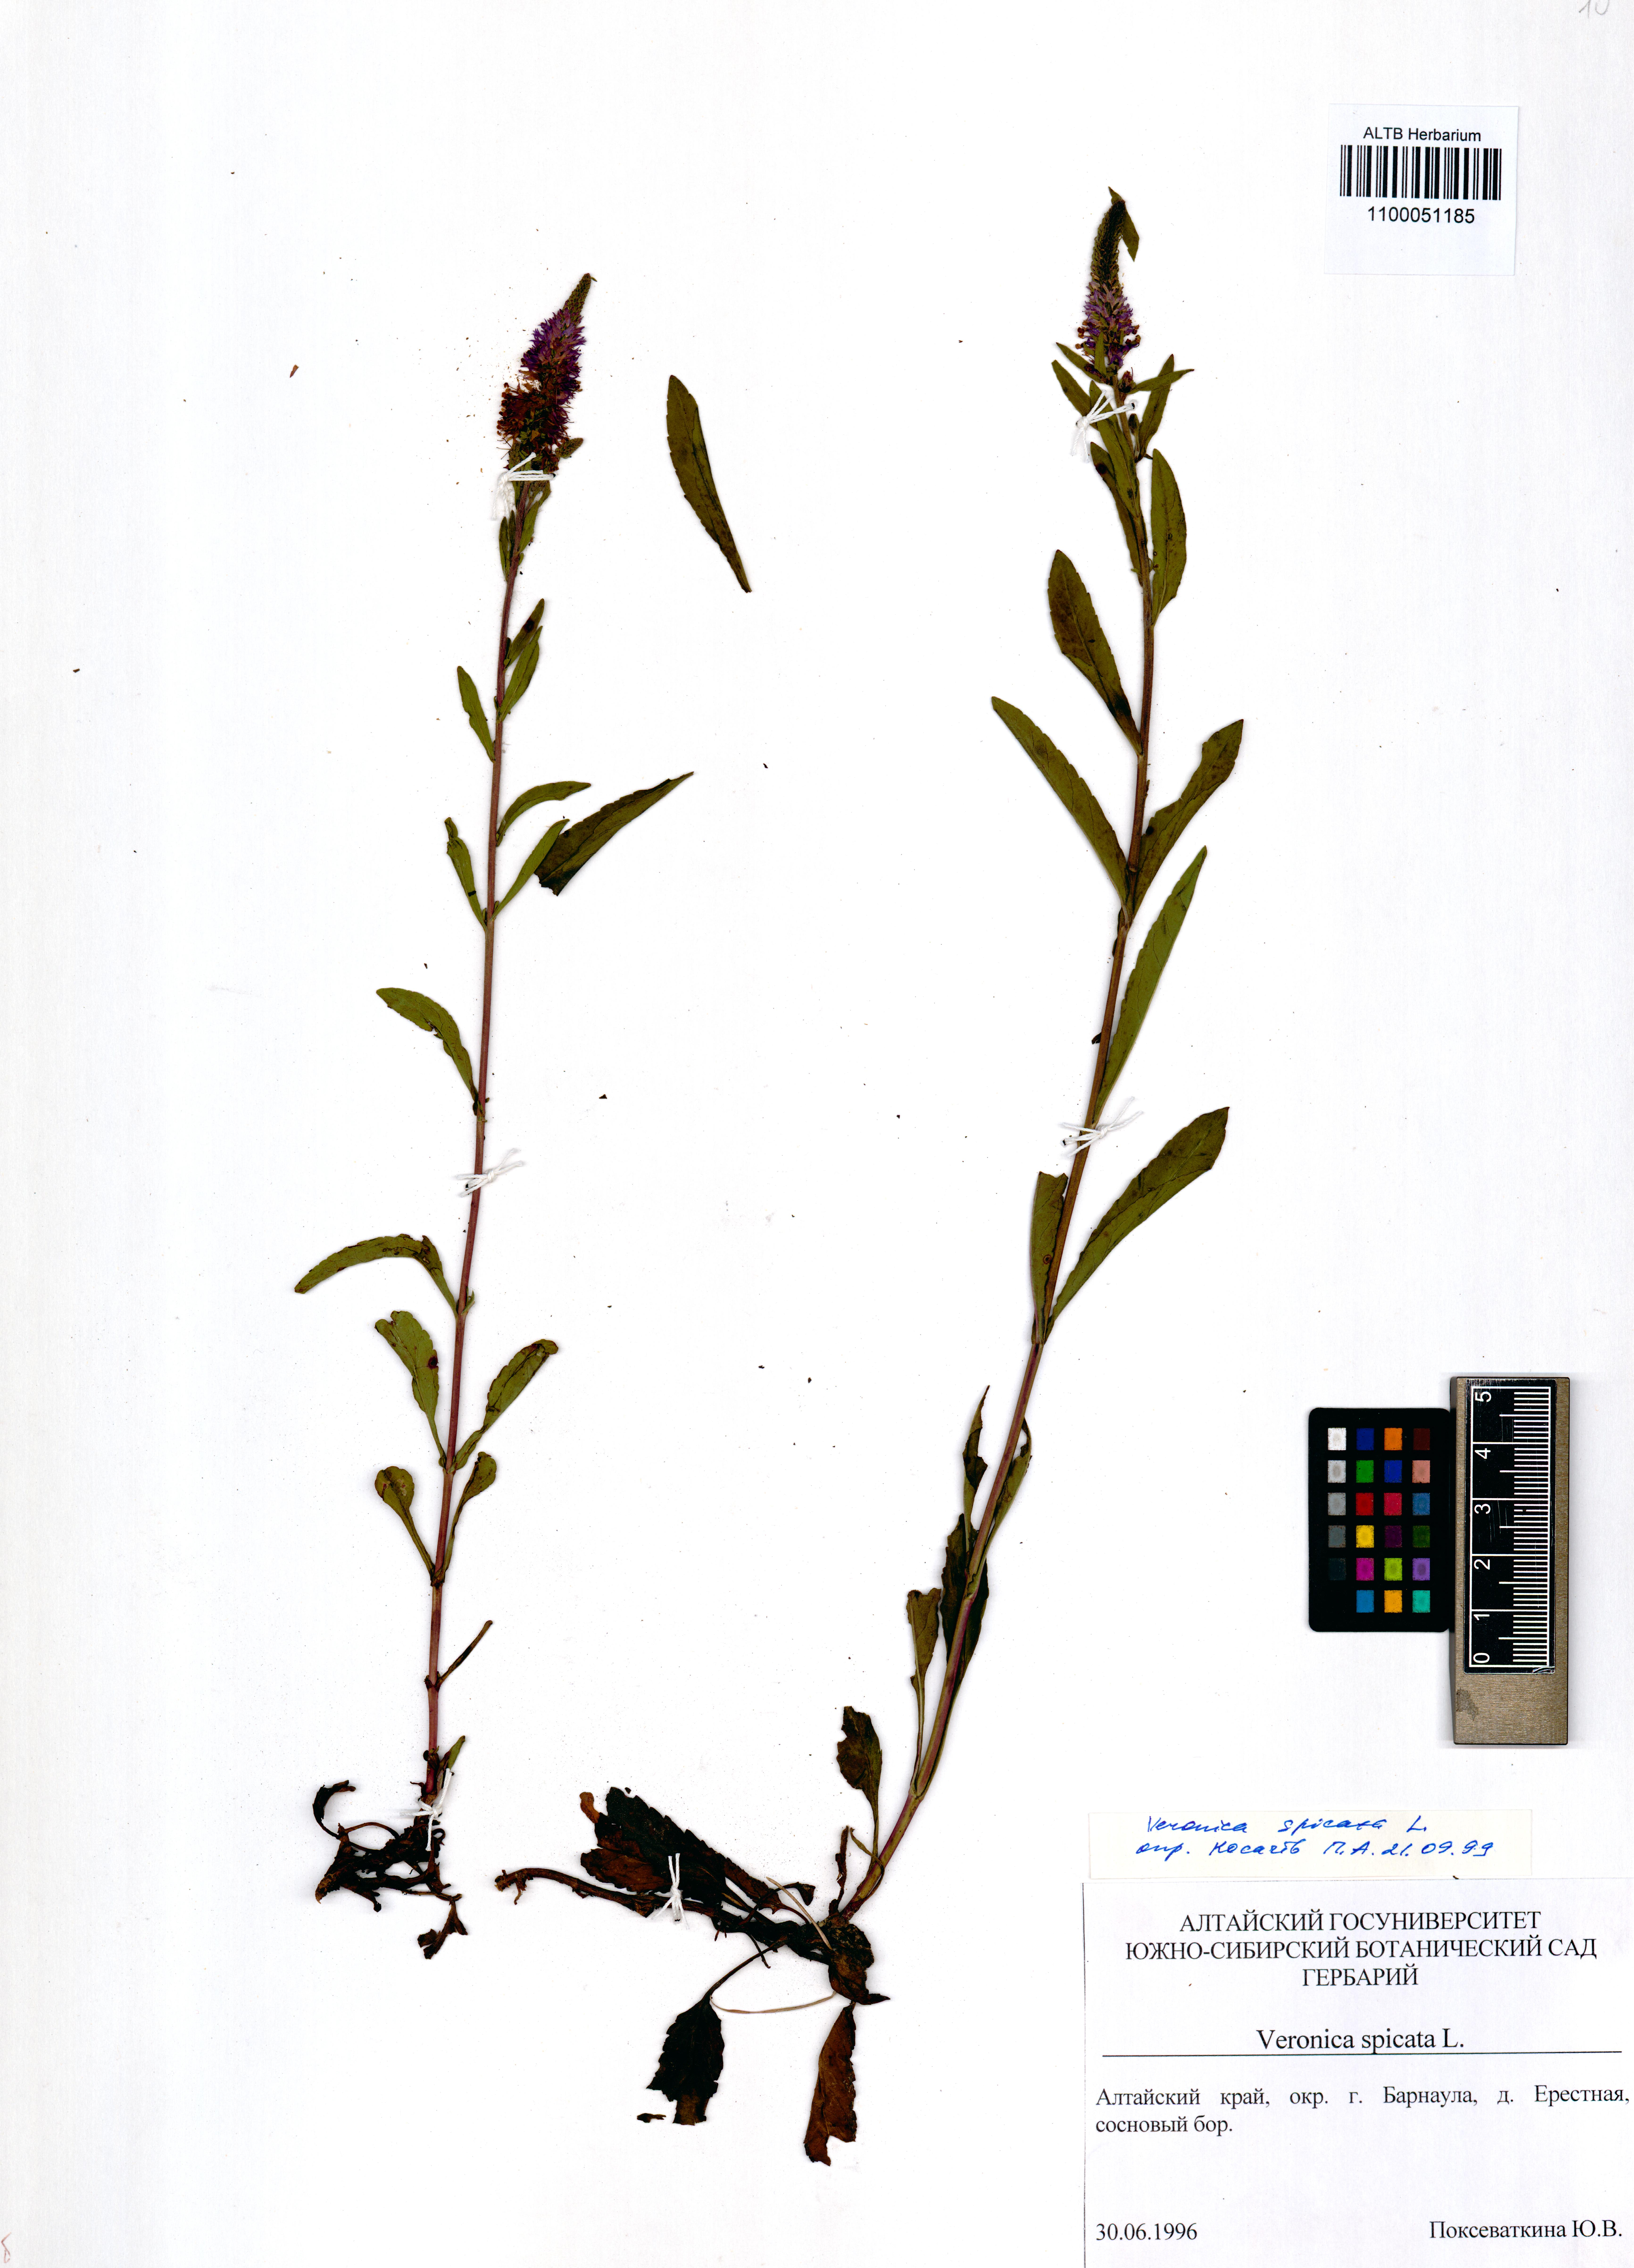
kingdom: Plantae
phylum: Tracheophyta
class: Magnoliopsida
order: Lamiales
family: Plantaginaceae
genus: Veronica
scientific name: Veronica spicata
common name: Spiked speedwell
